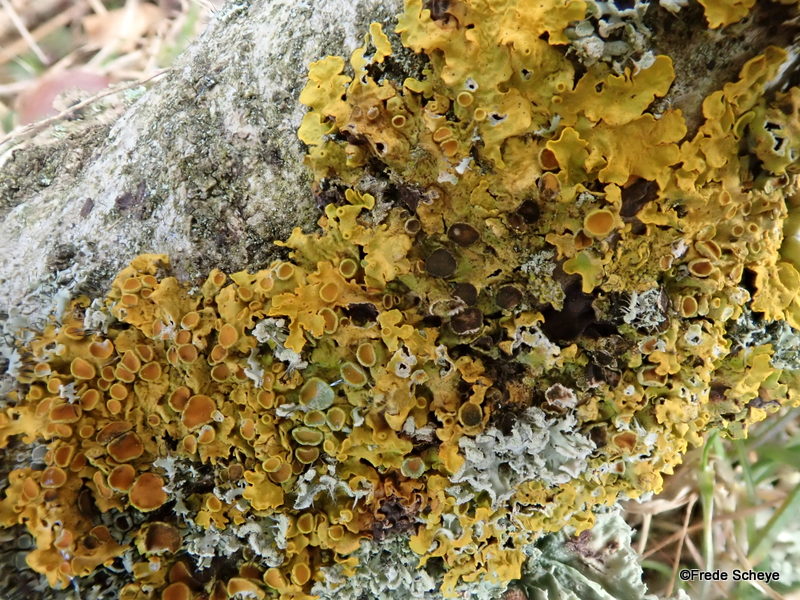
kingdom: Fungi
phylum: Ascomycota
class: Lecanoromycetes
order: Teloschistales
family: Teloschistaceae
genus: Xanthoria
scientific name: Xanthoria parietina
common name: almindelig væggelav
